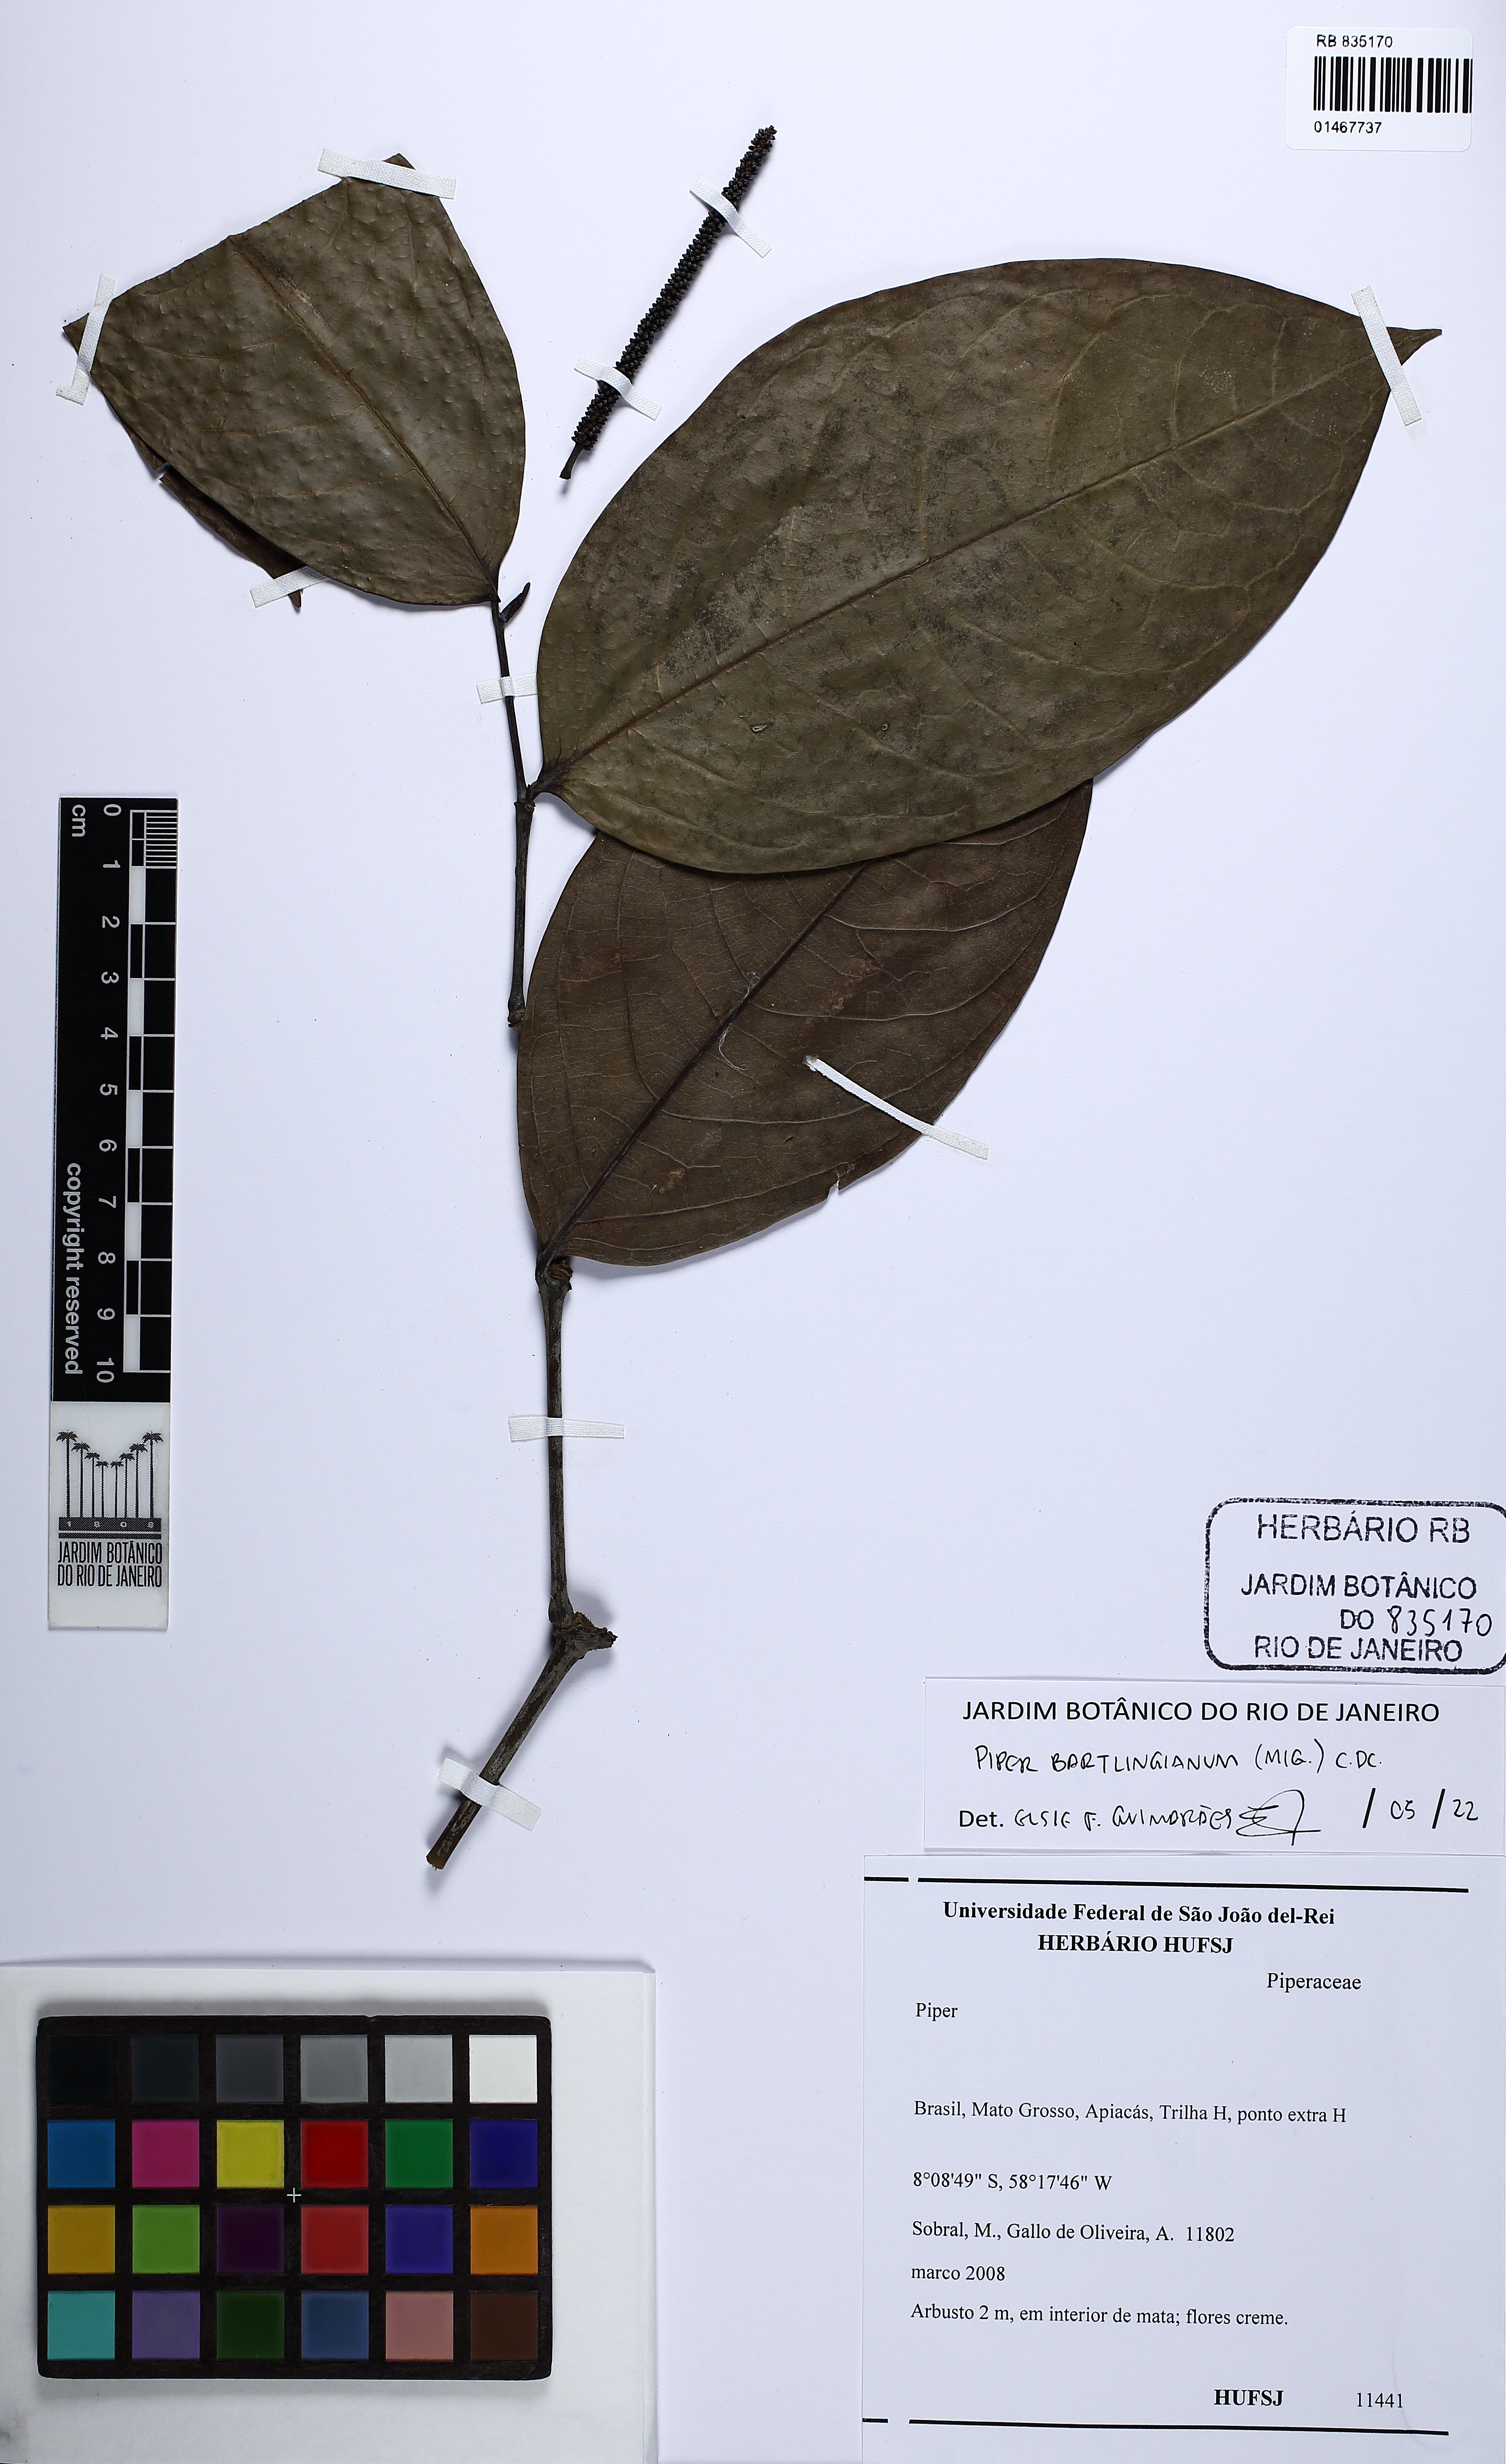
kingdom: Plantae
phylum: Tracheophyta
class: Magnoliopsida
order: Piperales
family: Piperaceae
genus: Piper
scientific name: Piper bartlingianum
